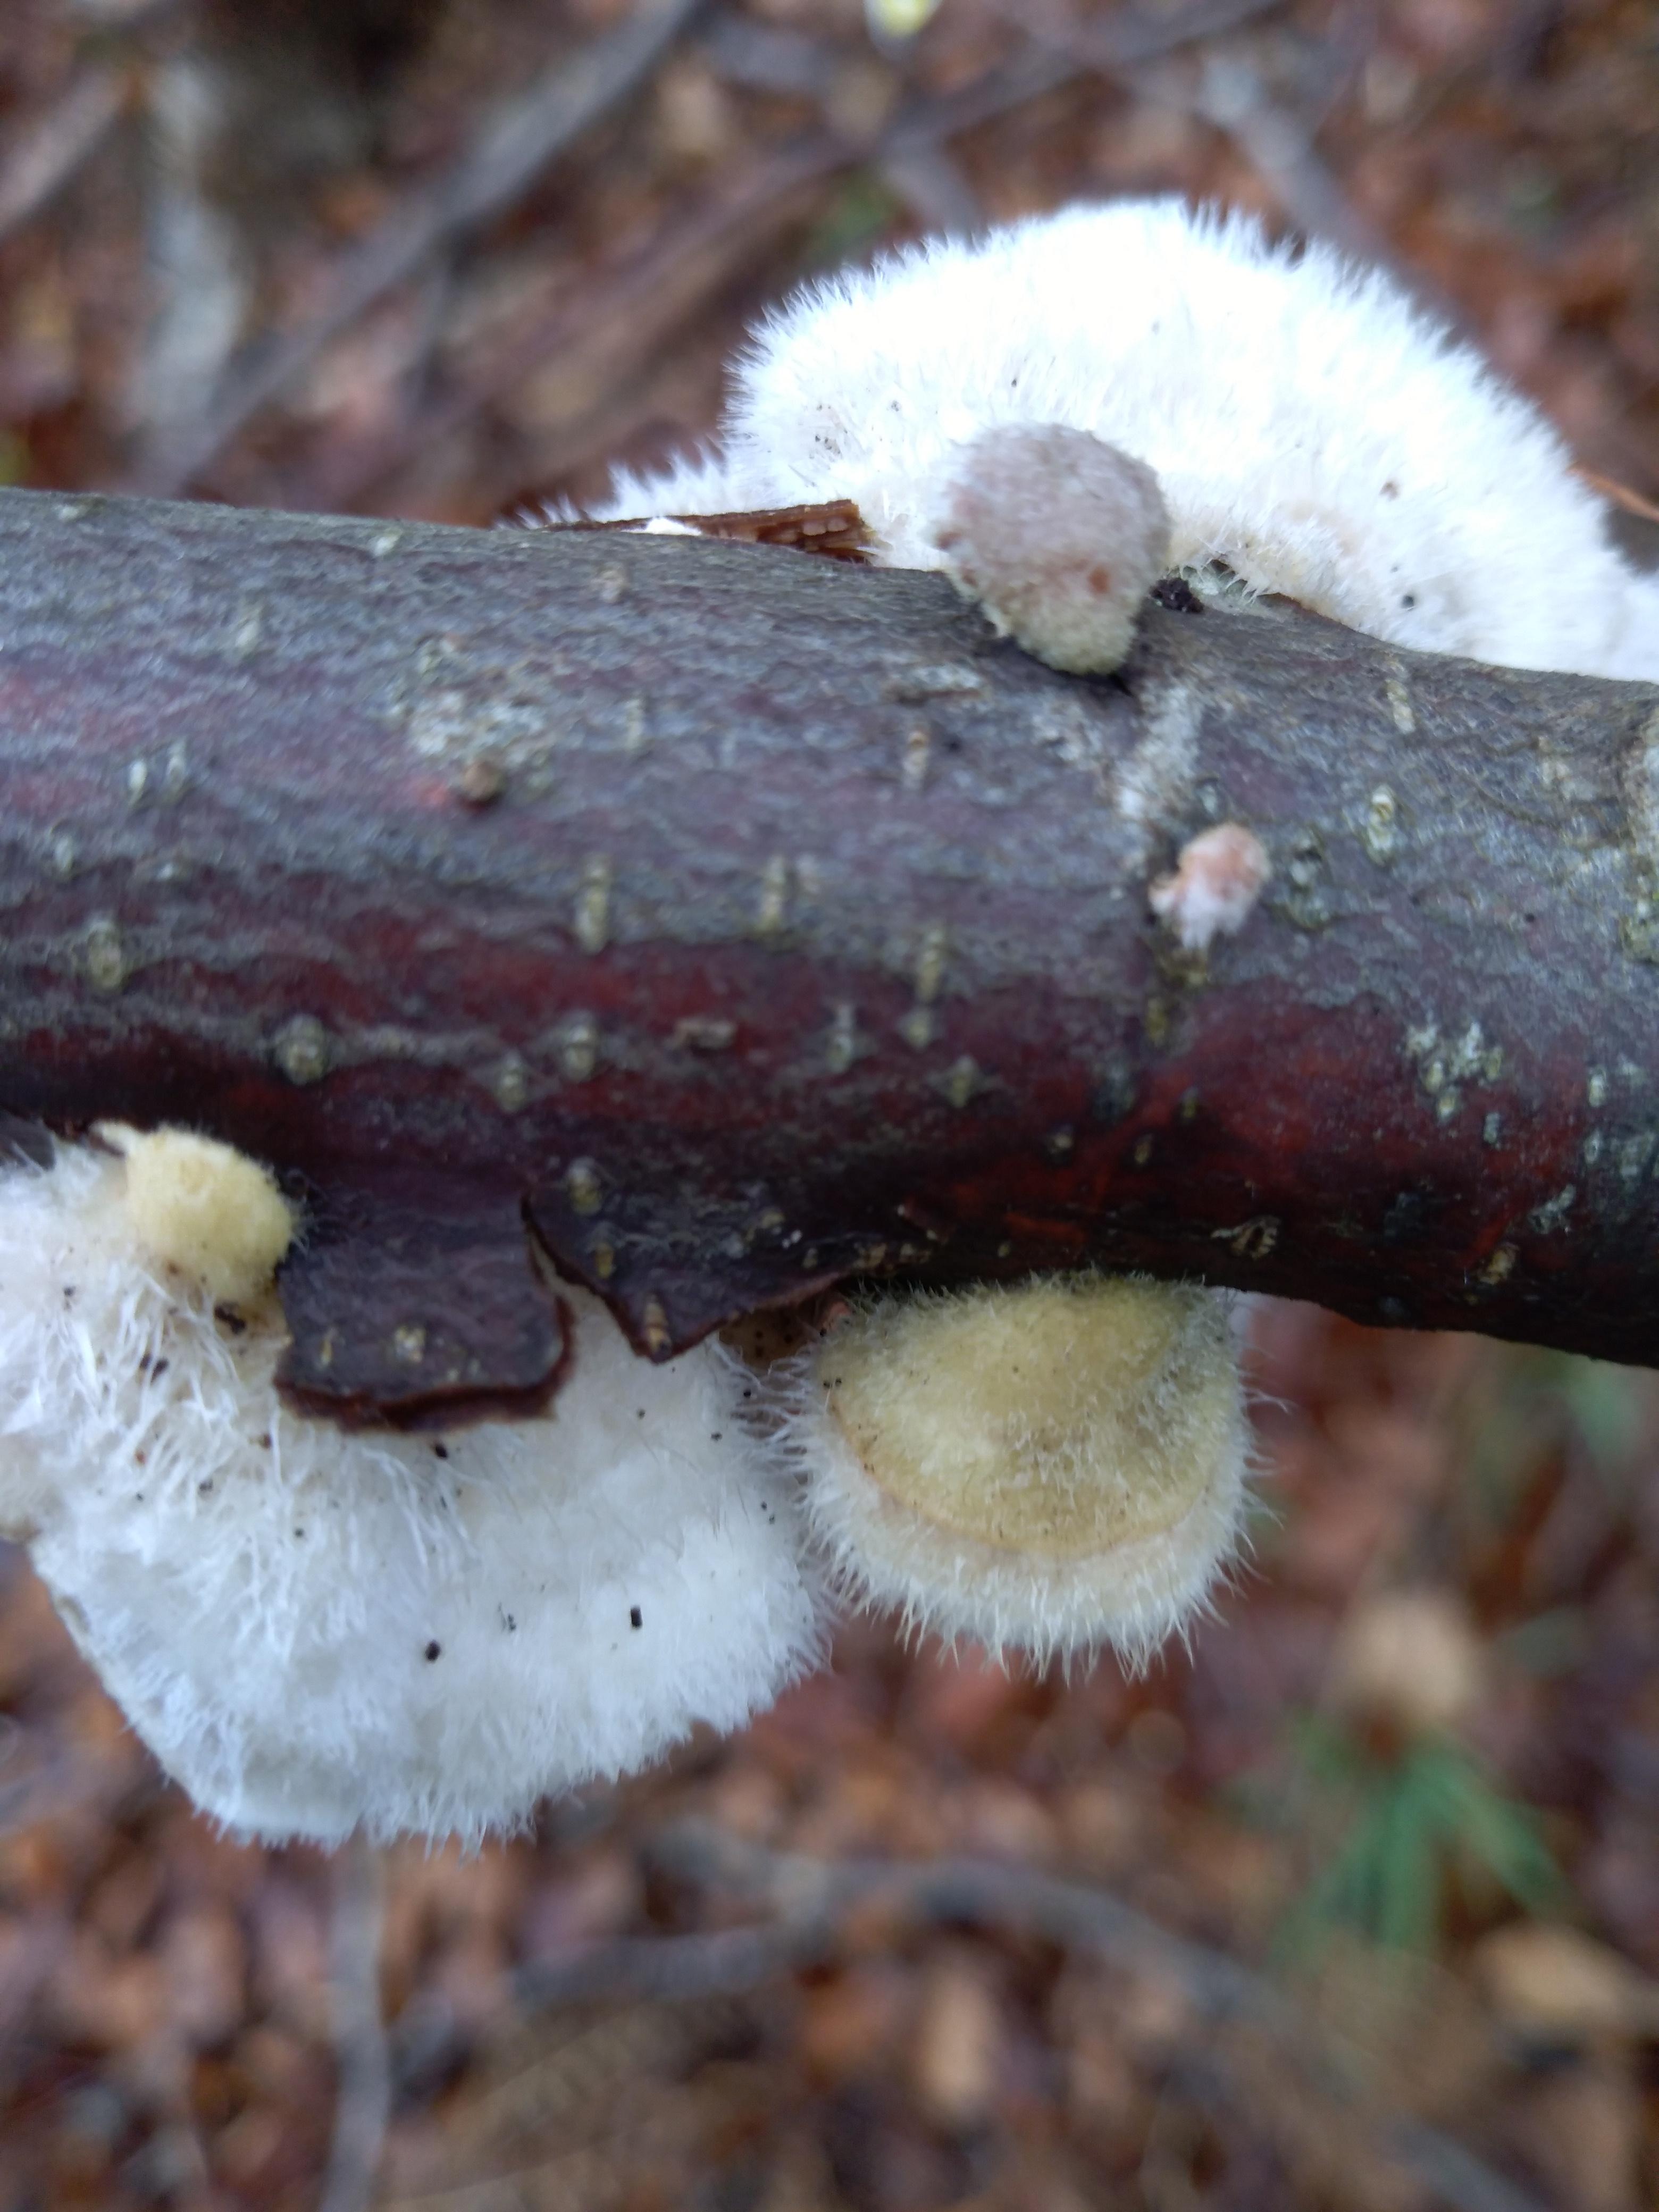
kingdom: Fungi
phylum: Basidiomycota
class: Agaricomycetes
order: Polyporales
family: Polyporaceae
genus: Trametes
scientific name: Trametes hirsuta
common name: håret læderporesvamp
